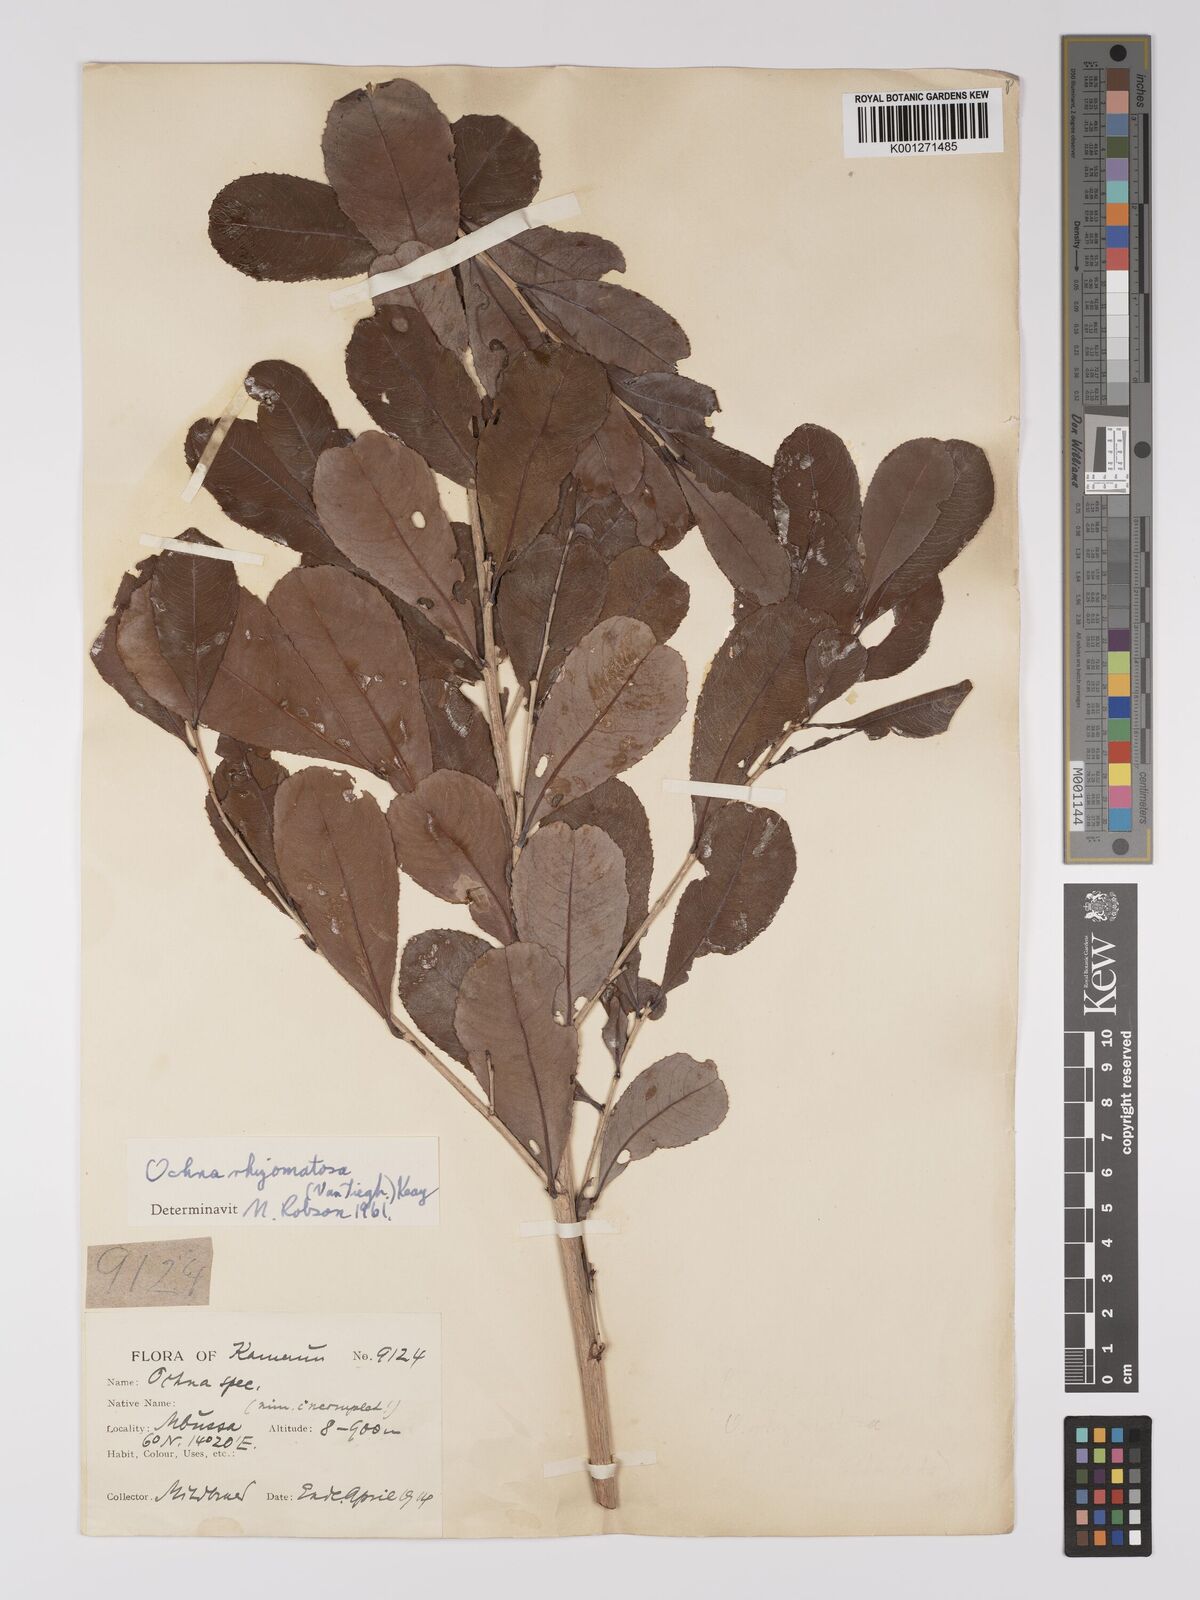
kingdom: Plantae
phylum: Tracheophyta
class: Magnoliopsida
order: Malpighiales
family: Ochnaceae
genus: Ochna
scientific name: Ochna rhizomatosa
